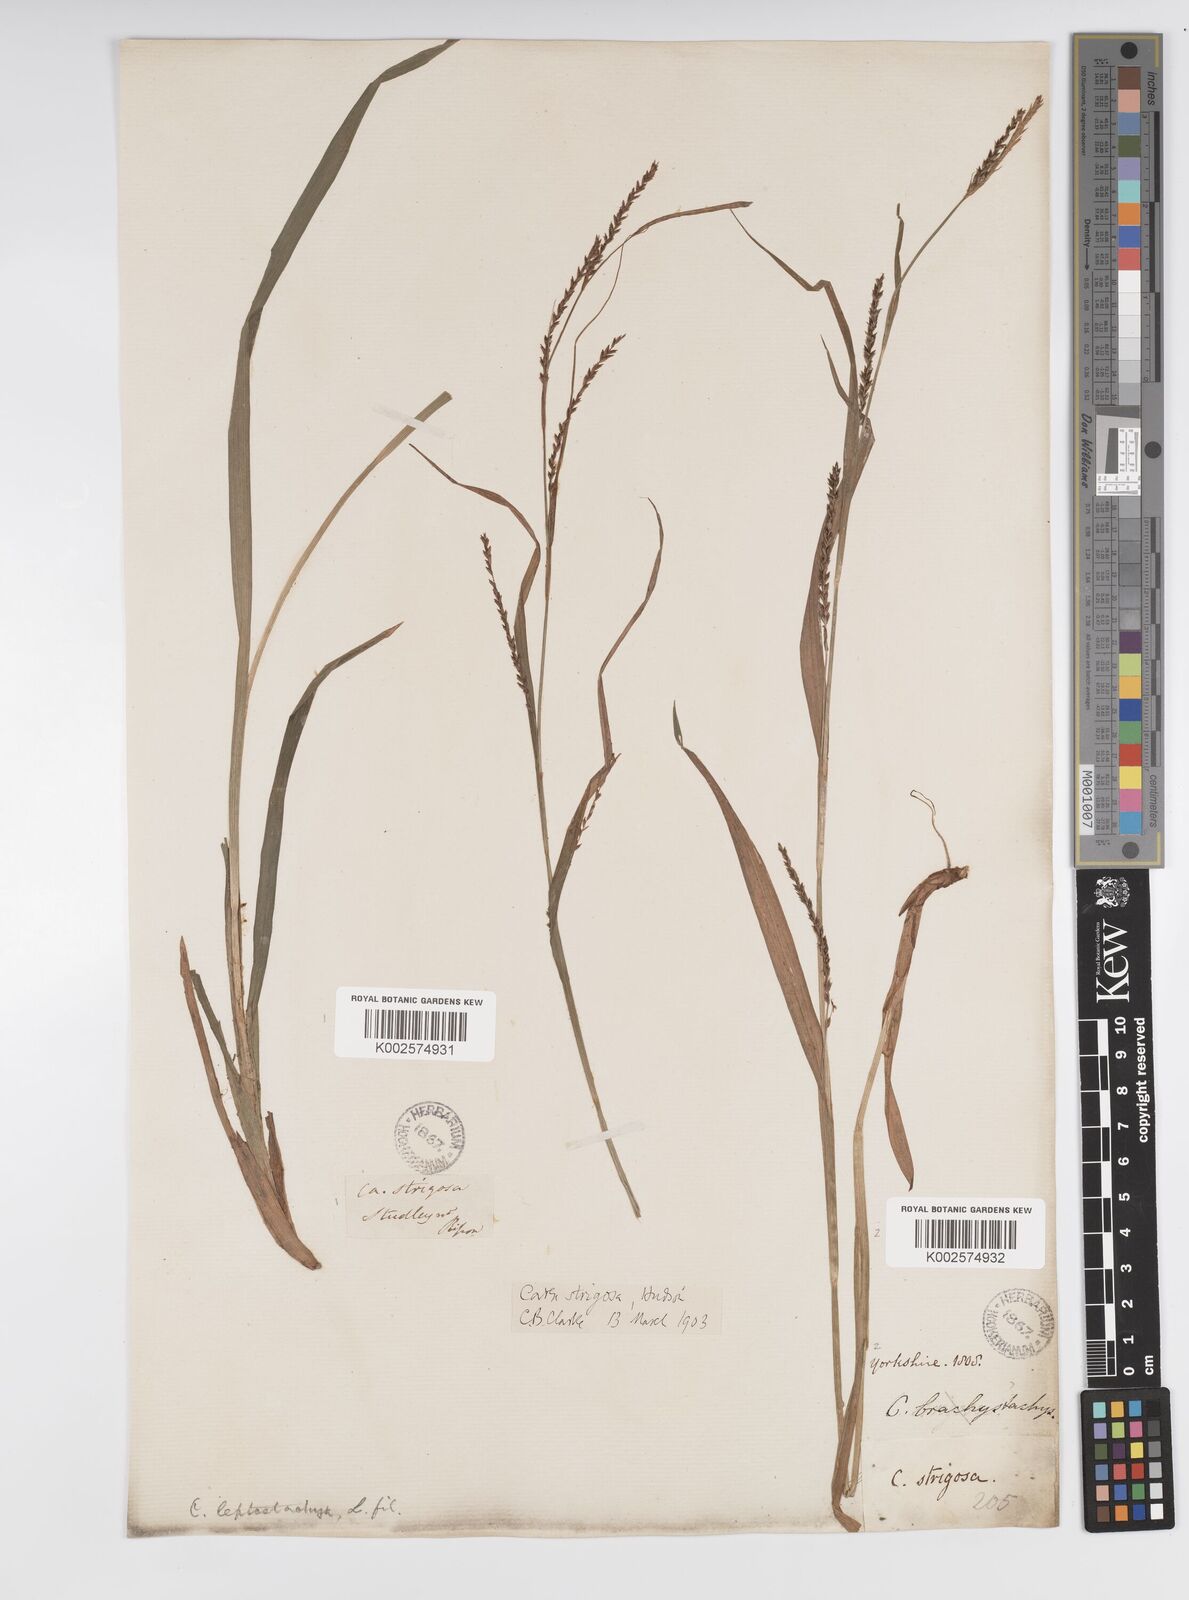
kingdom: Plantae
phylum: Tracheophyta
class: Liliopsida
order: Poales
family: Cyperaceae
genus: Carex
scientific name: Carex strigosa
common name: Thin-spiked wood-sedge
